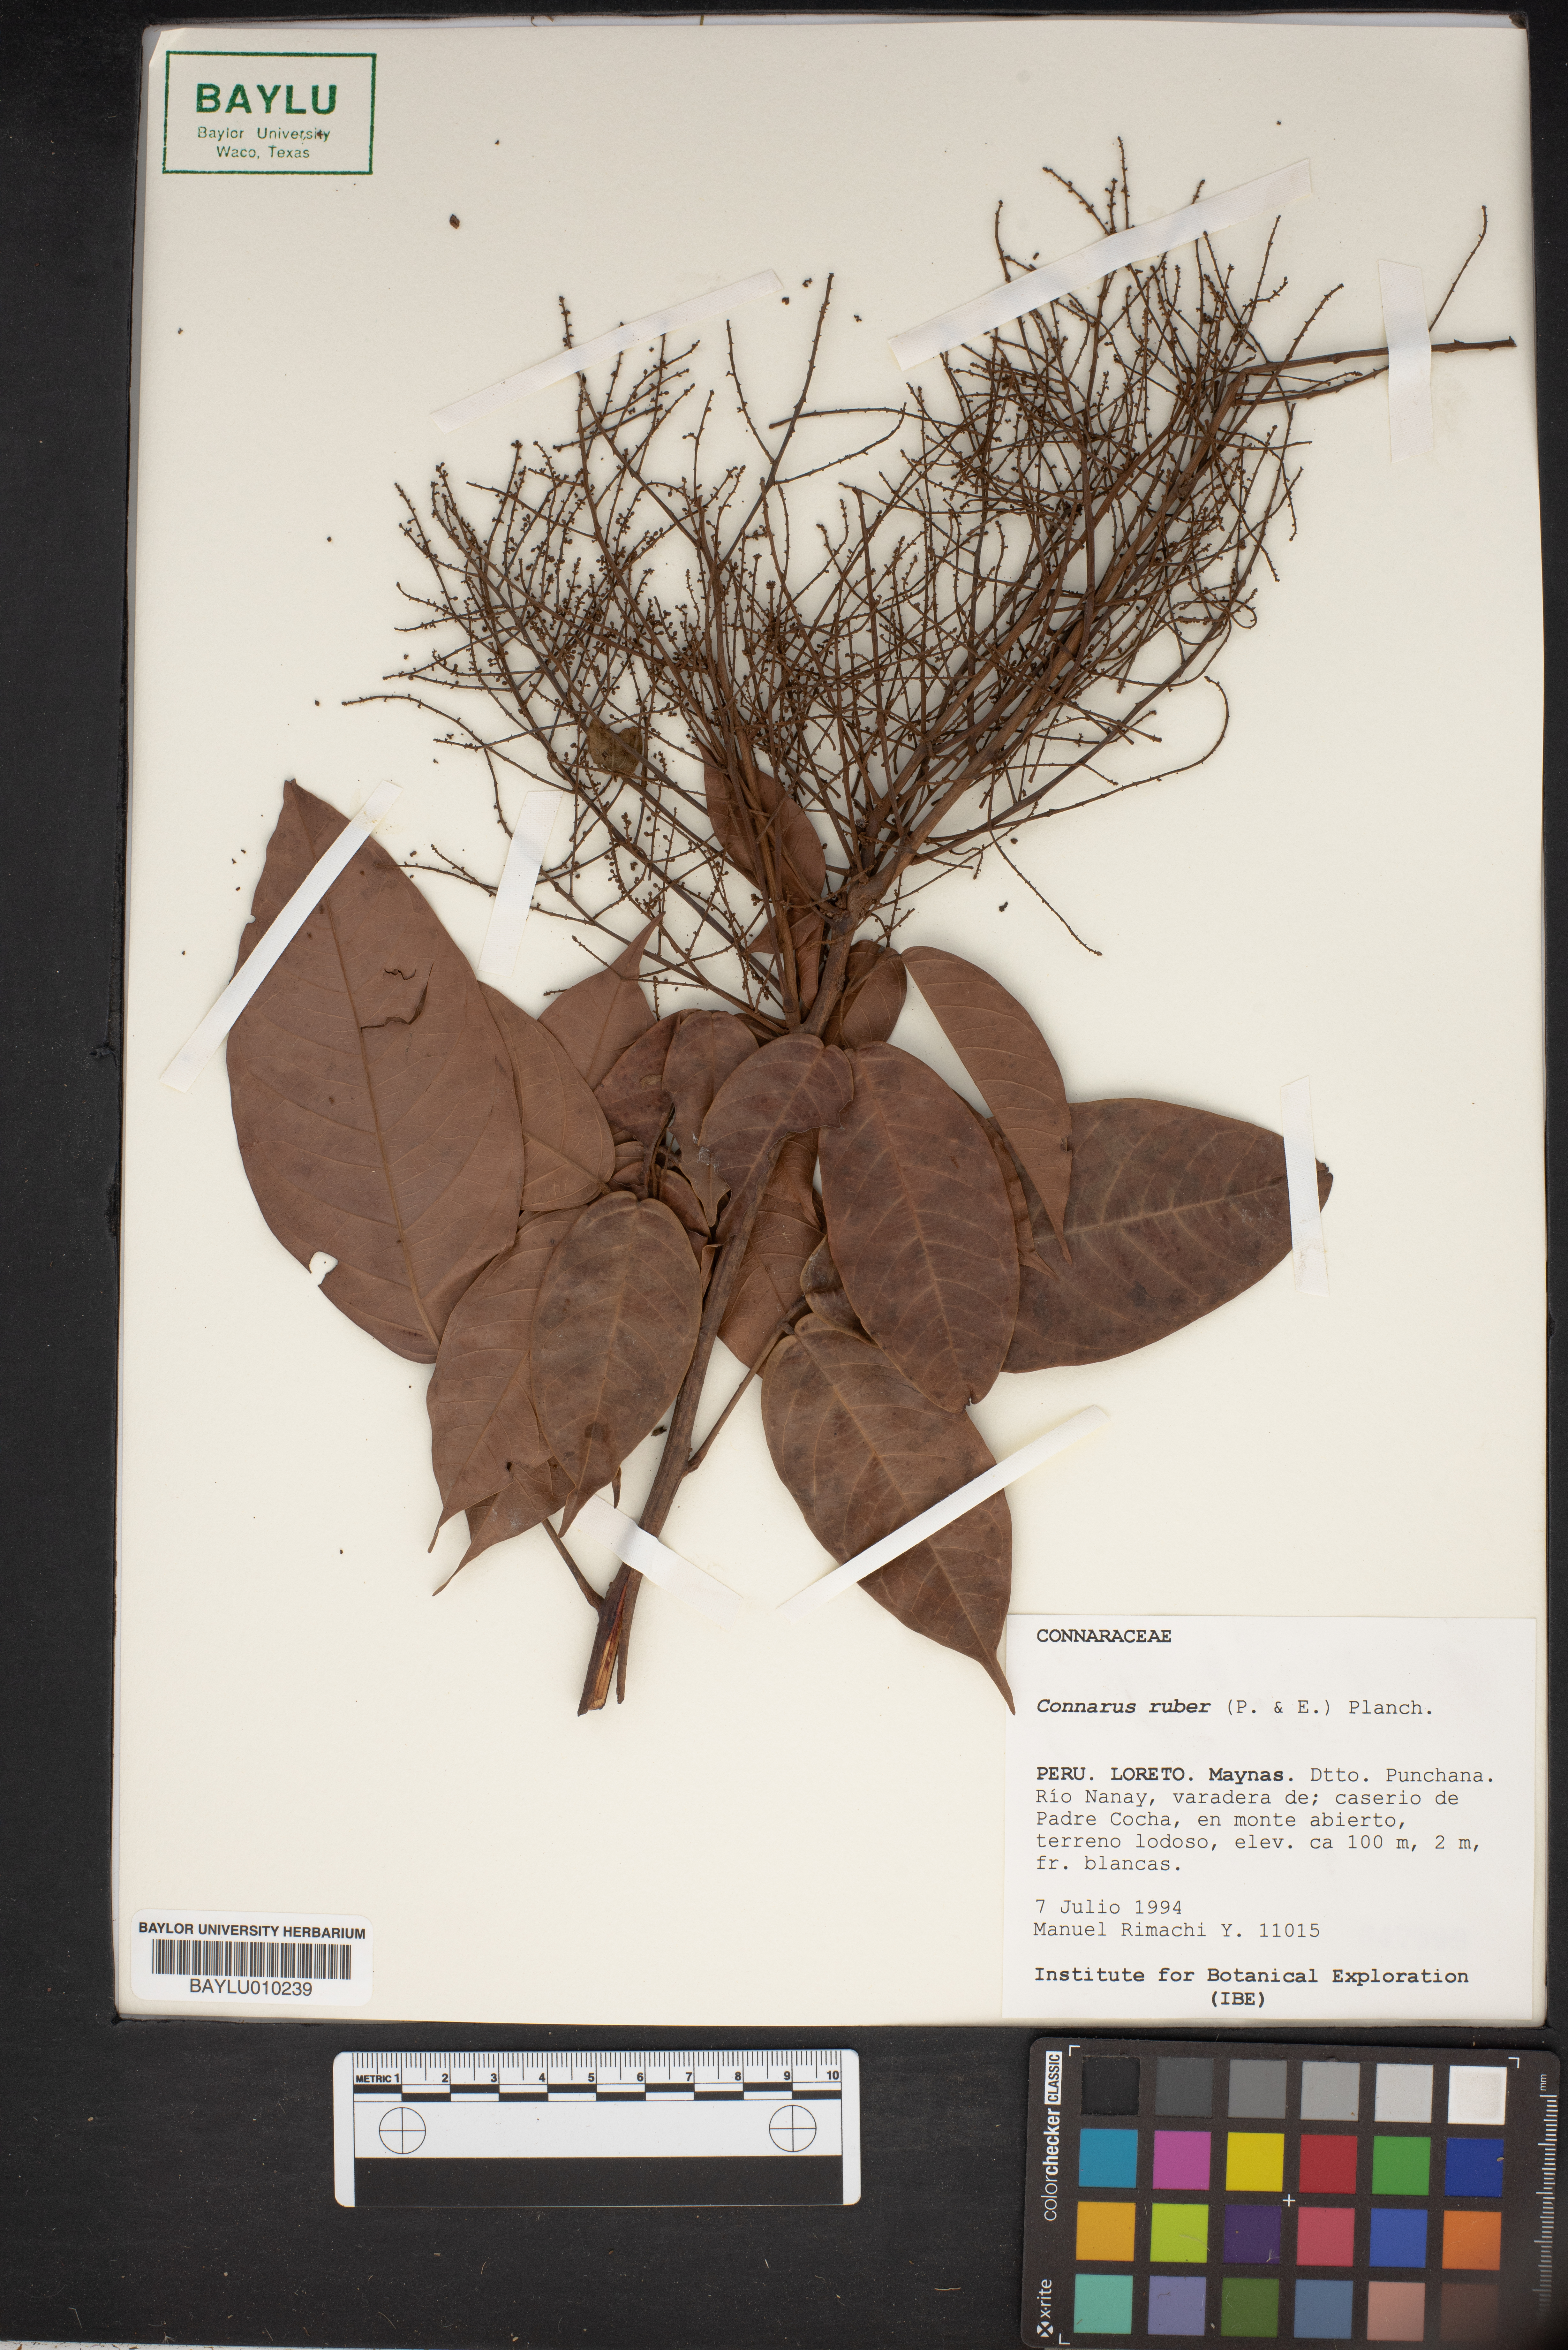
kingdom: Plantae
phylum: Tracheophyta
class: Magnoliopsida
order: Oxalidales
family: Connaraceae
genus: Connarus
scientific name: Connarus ruber
